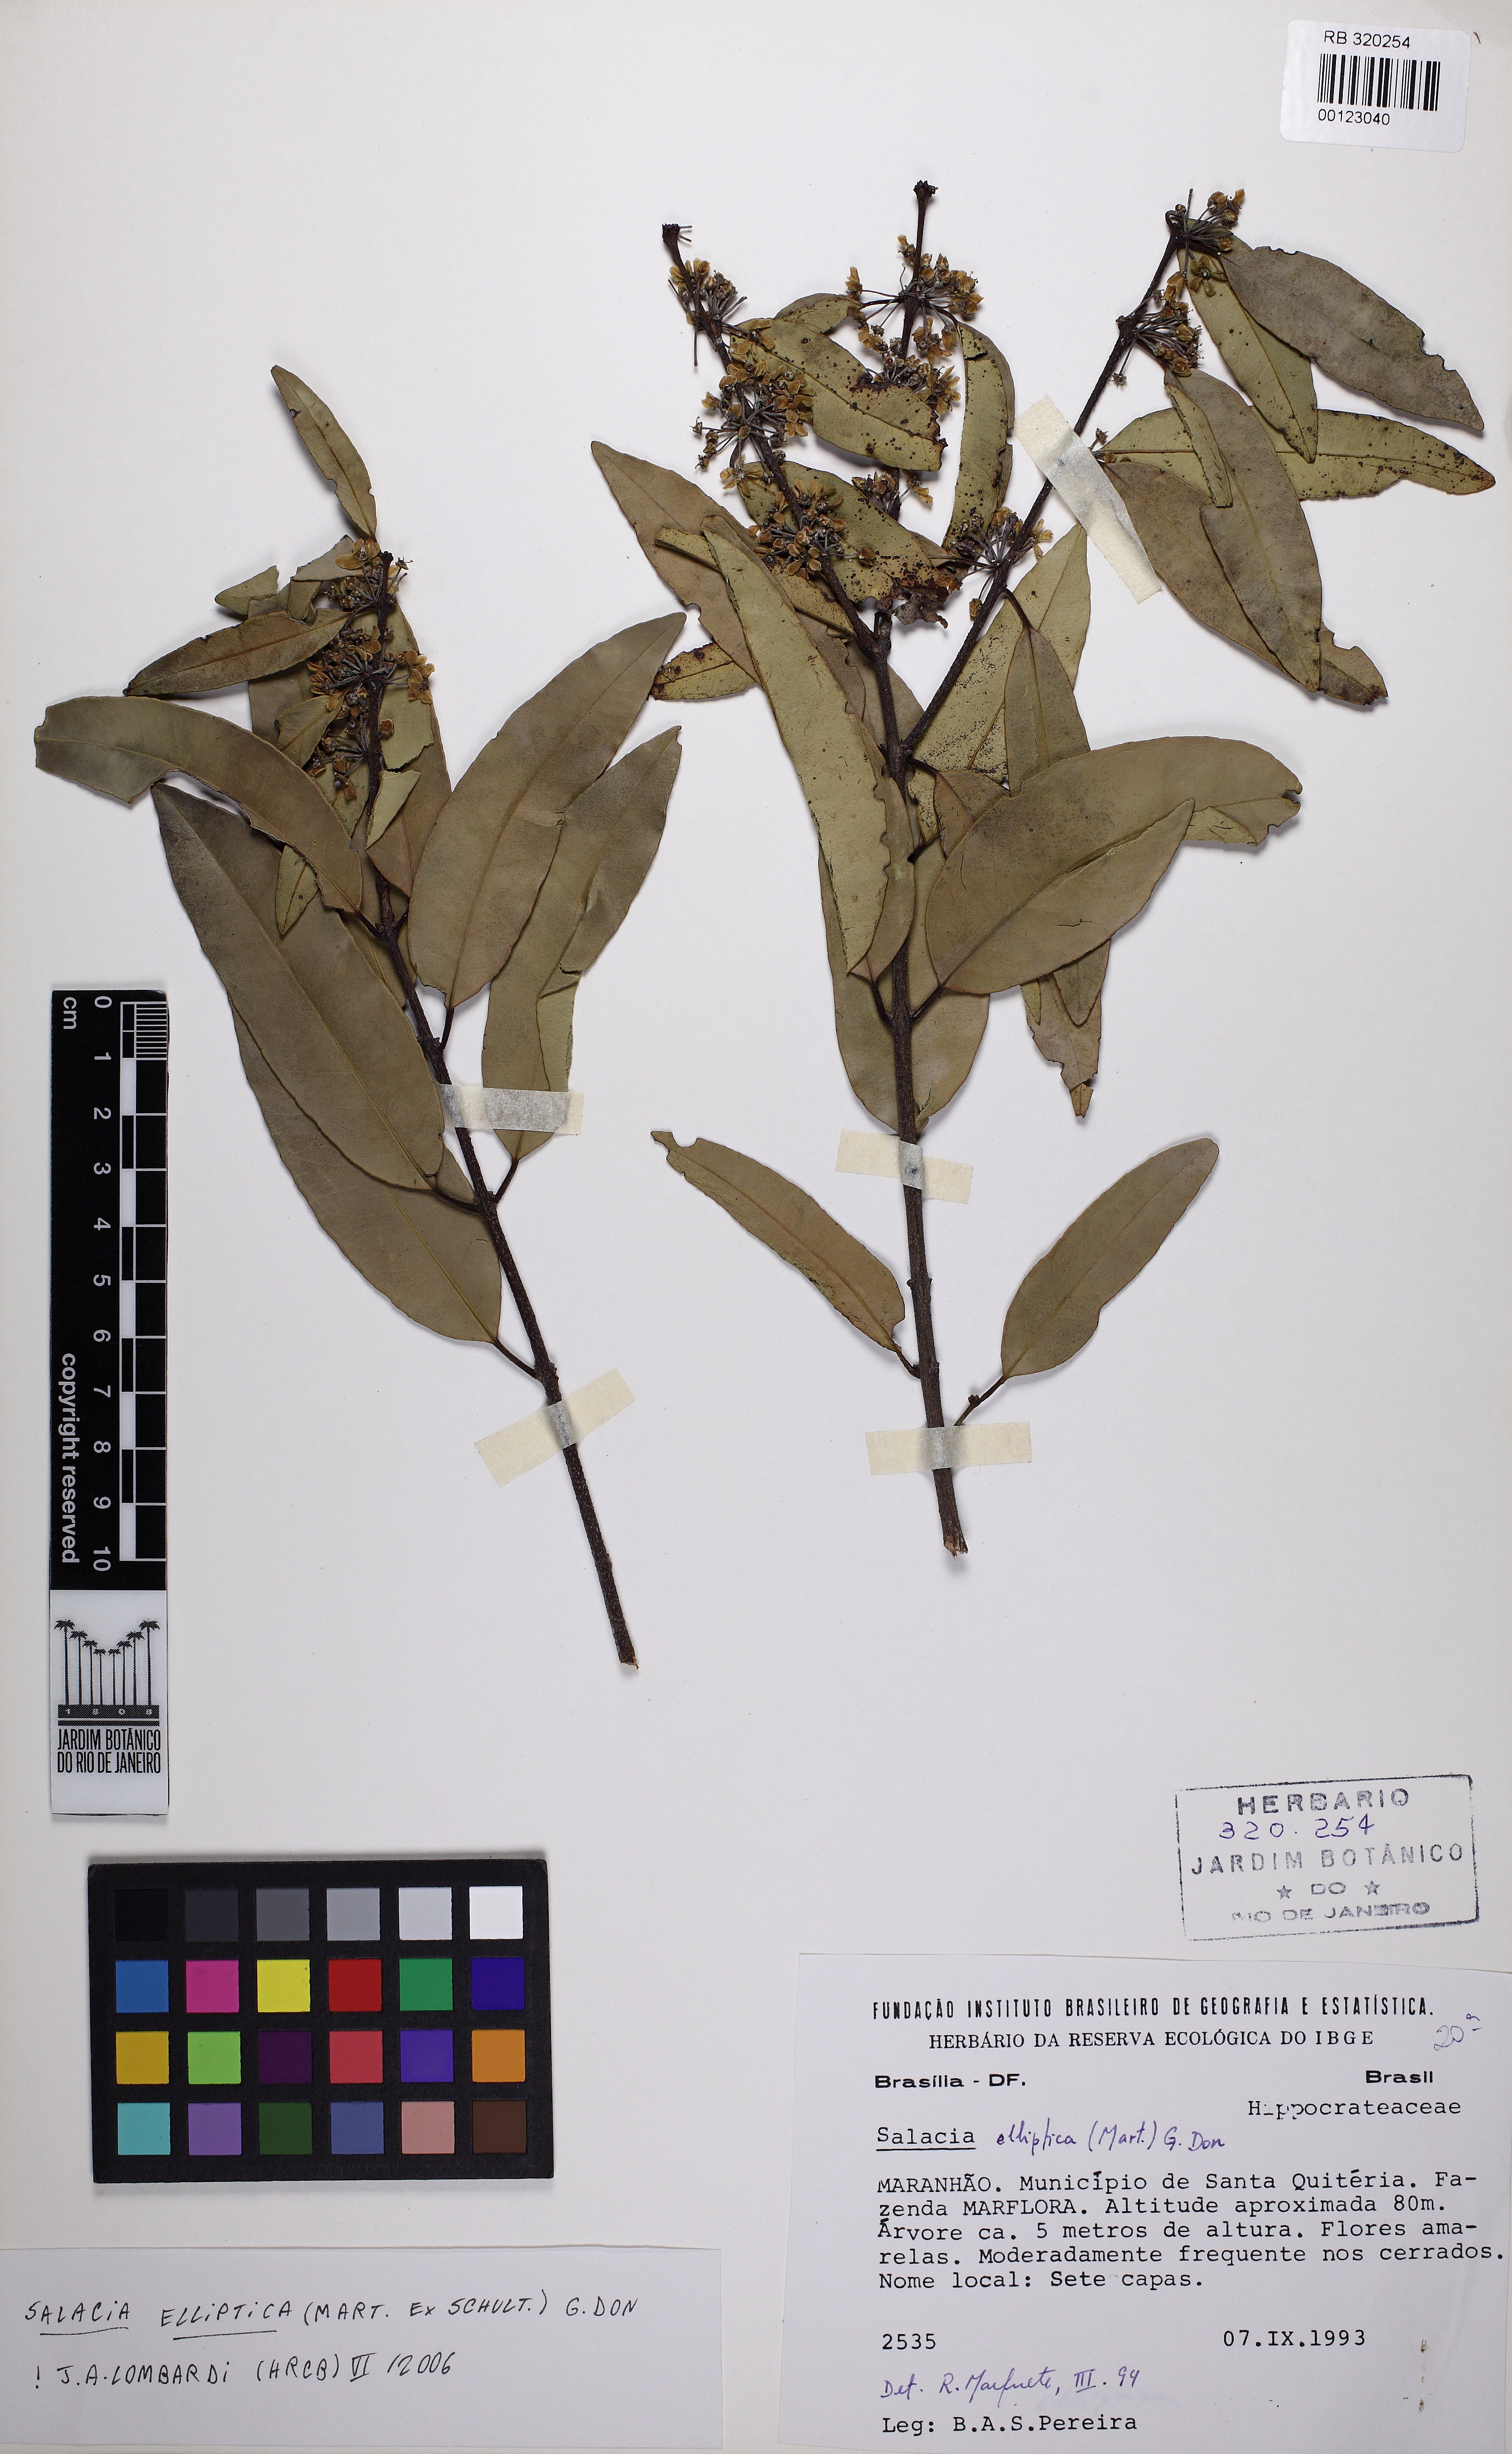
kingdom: Plantae
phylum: Tracheophyta
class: Magnoliopsida
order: Celastrales
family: Celastraceae
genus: Salacia
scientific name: Salacia elliptica
